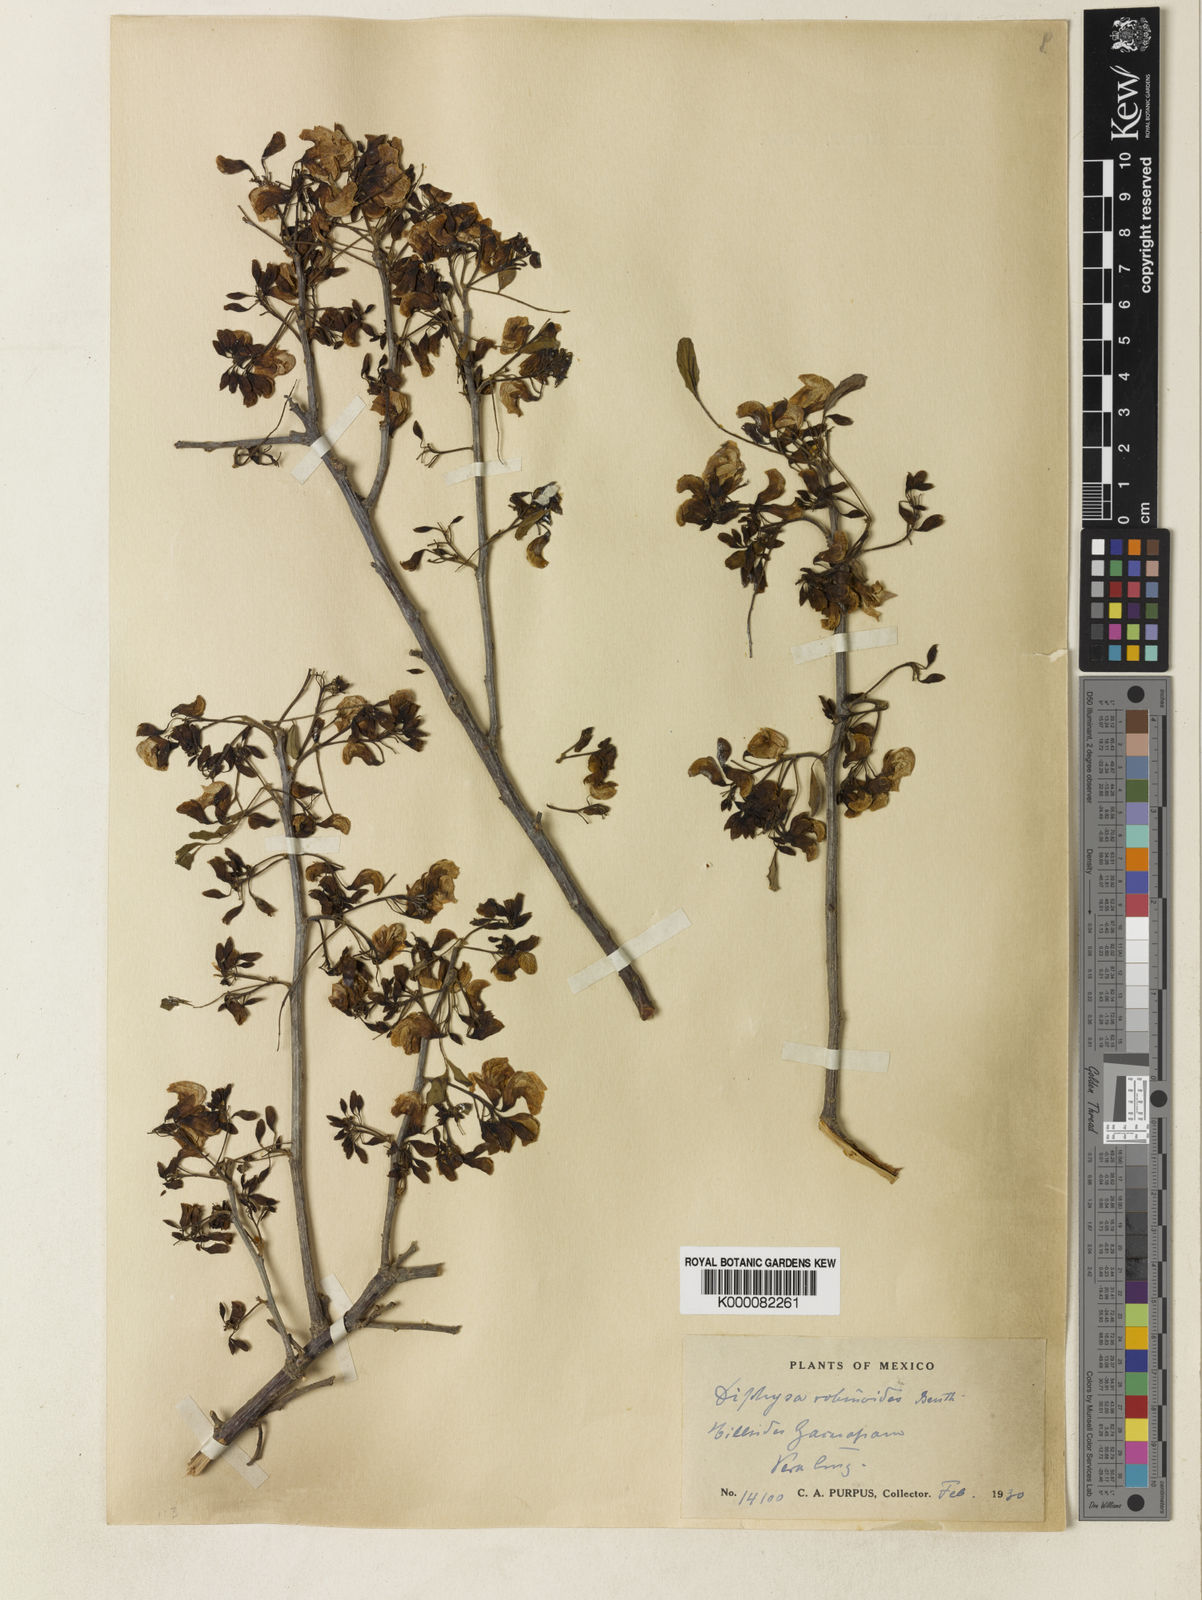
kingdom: Plantae
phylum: Tracheophyta
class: Magnoliopsida
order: Fabales
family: Fabaceae
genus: Diphysa
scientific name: Diphysa
